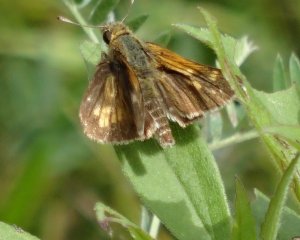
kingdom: Animalia
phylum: Arthropoda
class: Insecta
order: Lepidoptera
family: Hesperiidae
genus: Polites
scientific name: Polites coras
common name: Peck's Skipper
